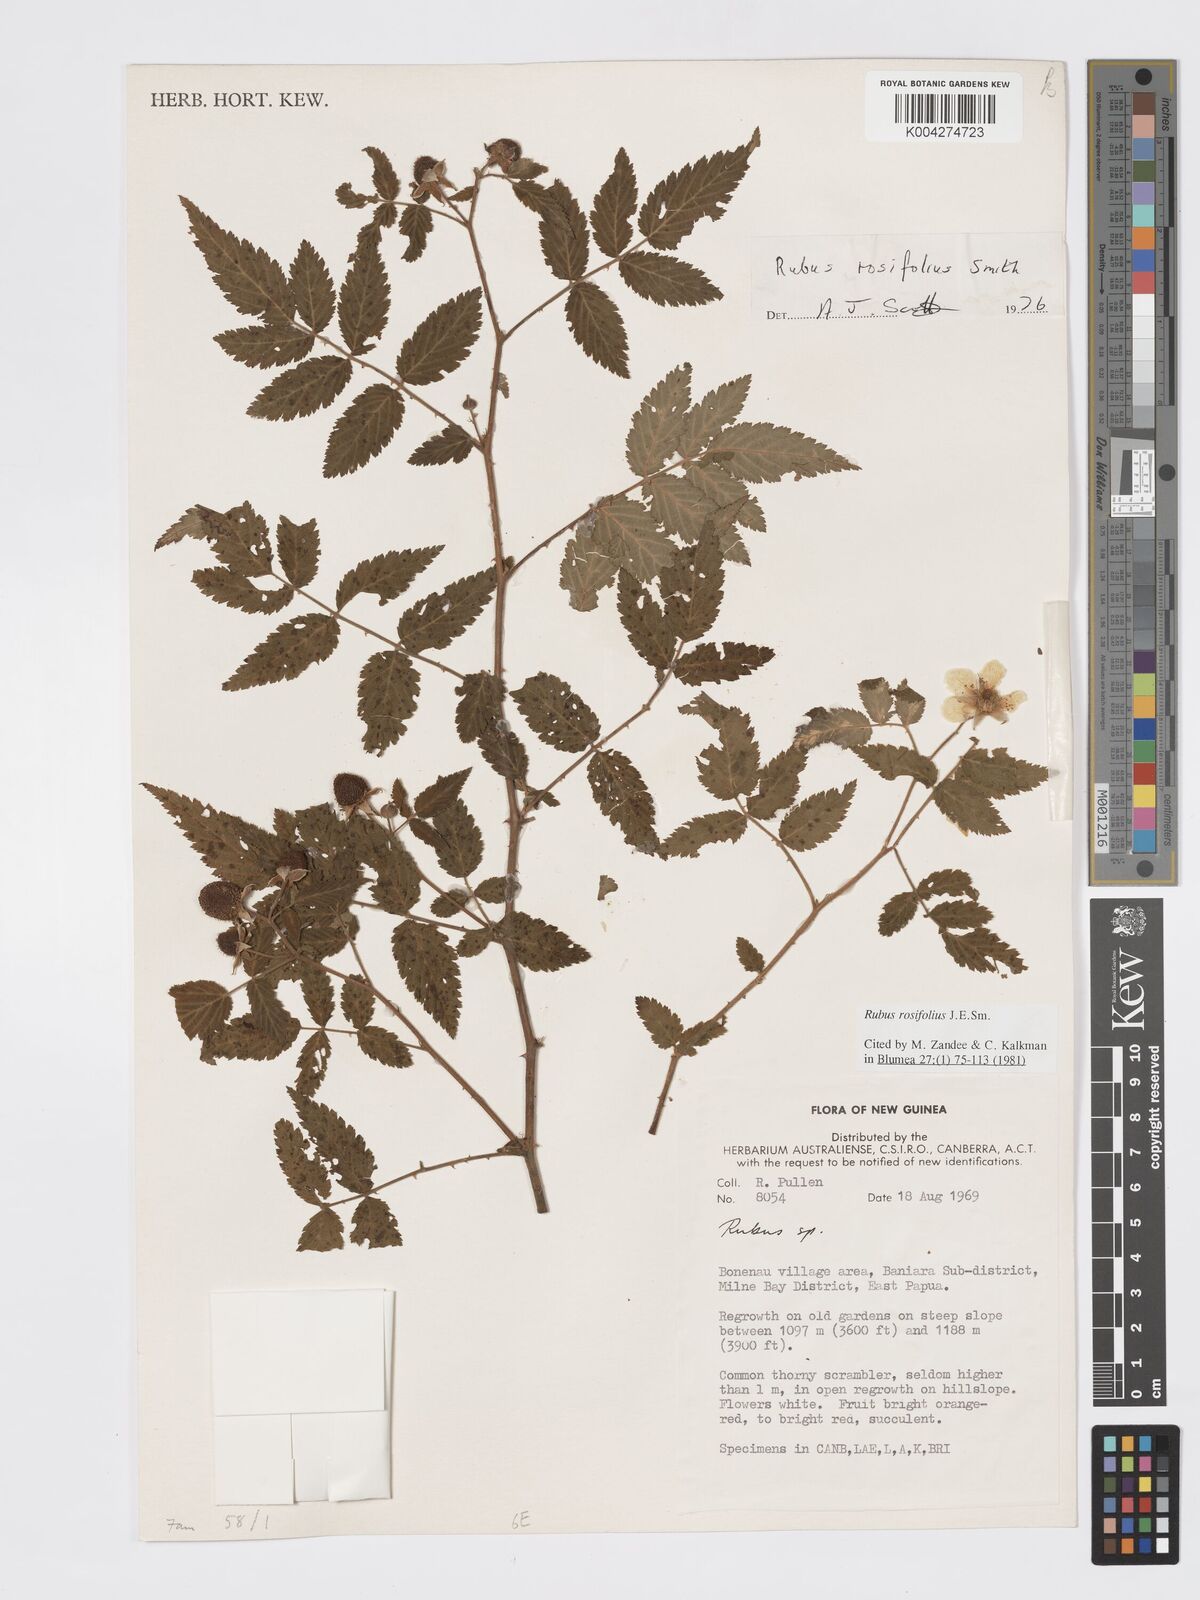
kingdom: Plantae
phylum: Tracheophyta
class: Magnoliopsida
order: Rosales
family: Rosaceae
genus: Rubus
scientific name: Rubus
